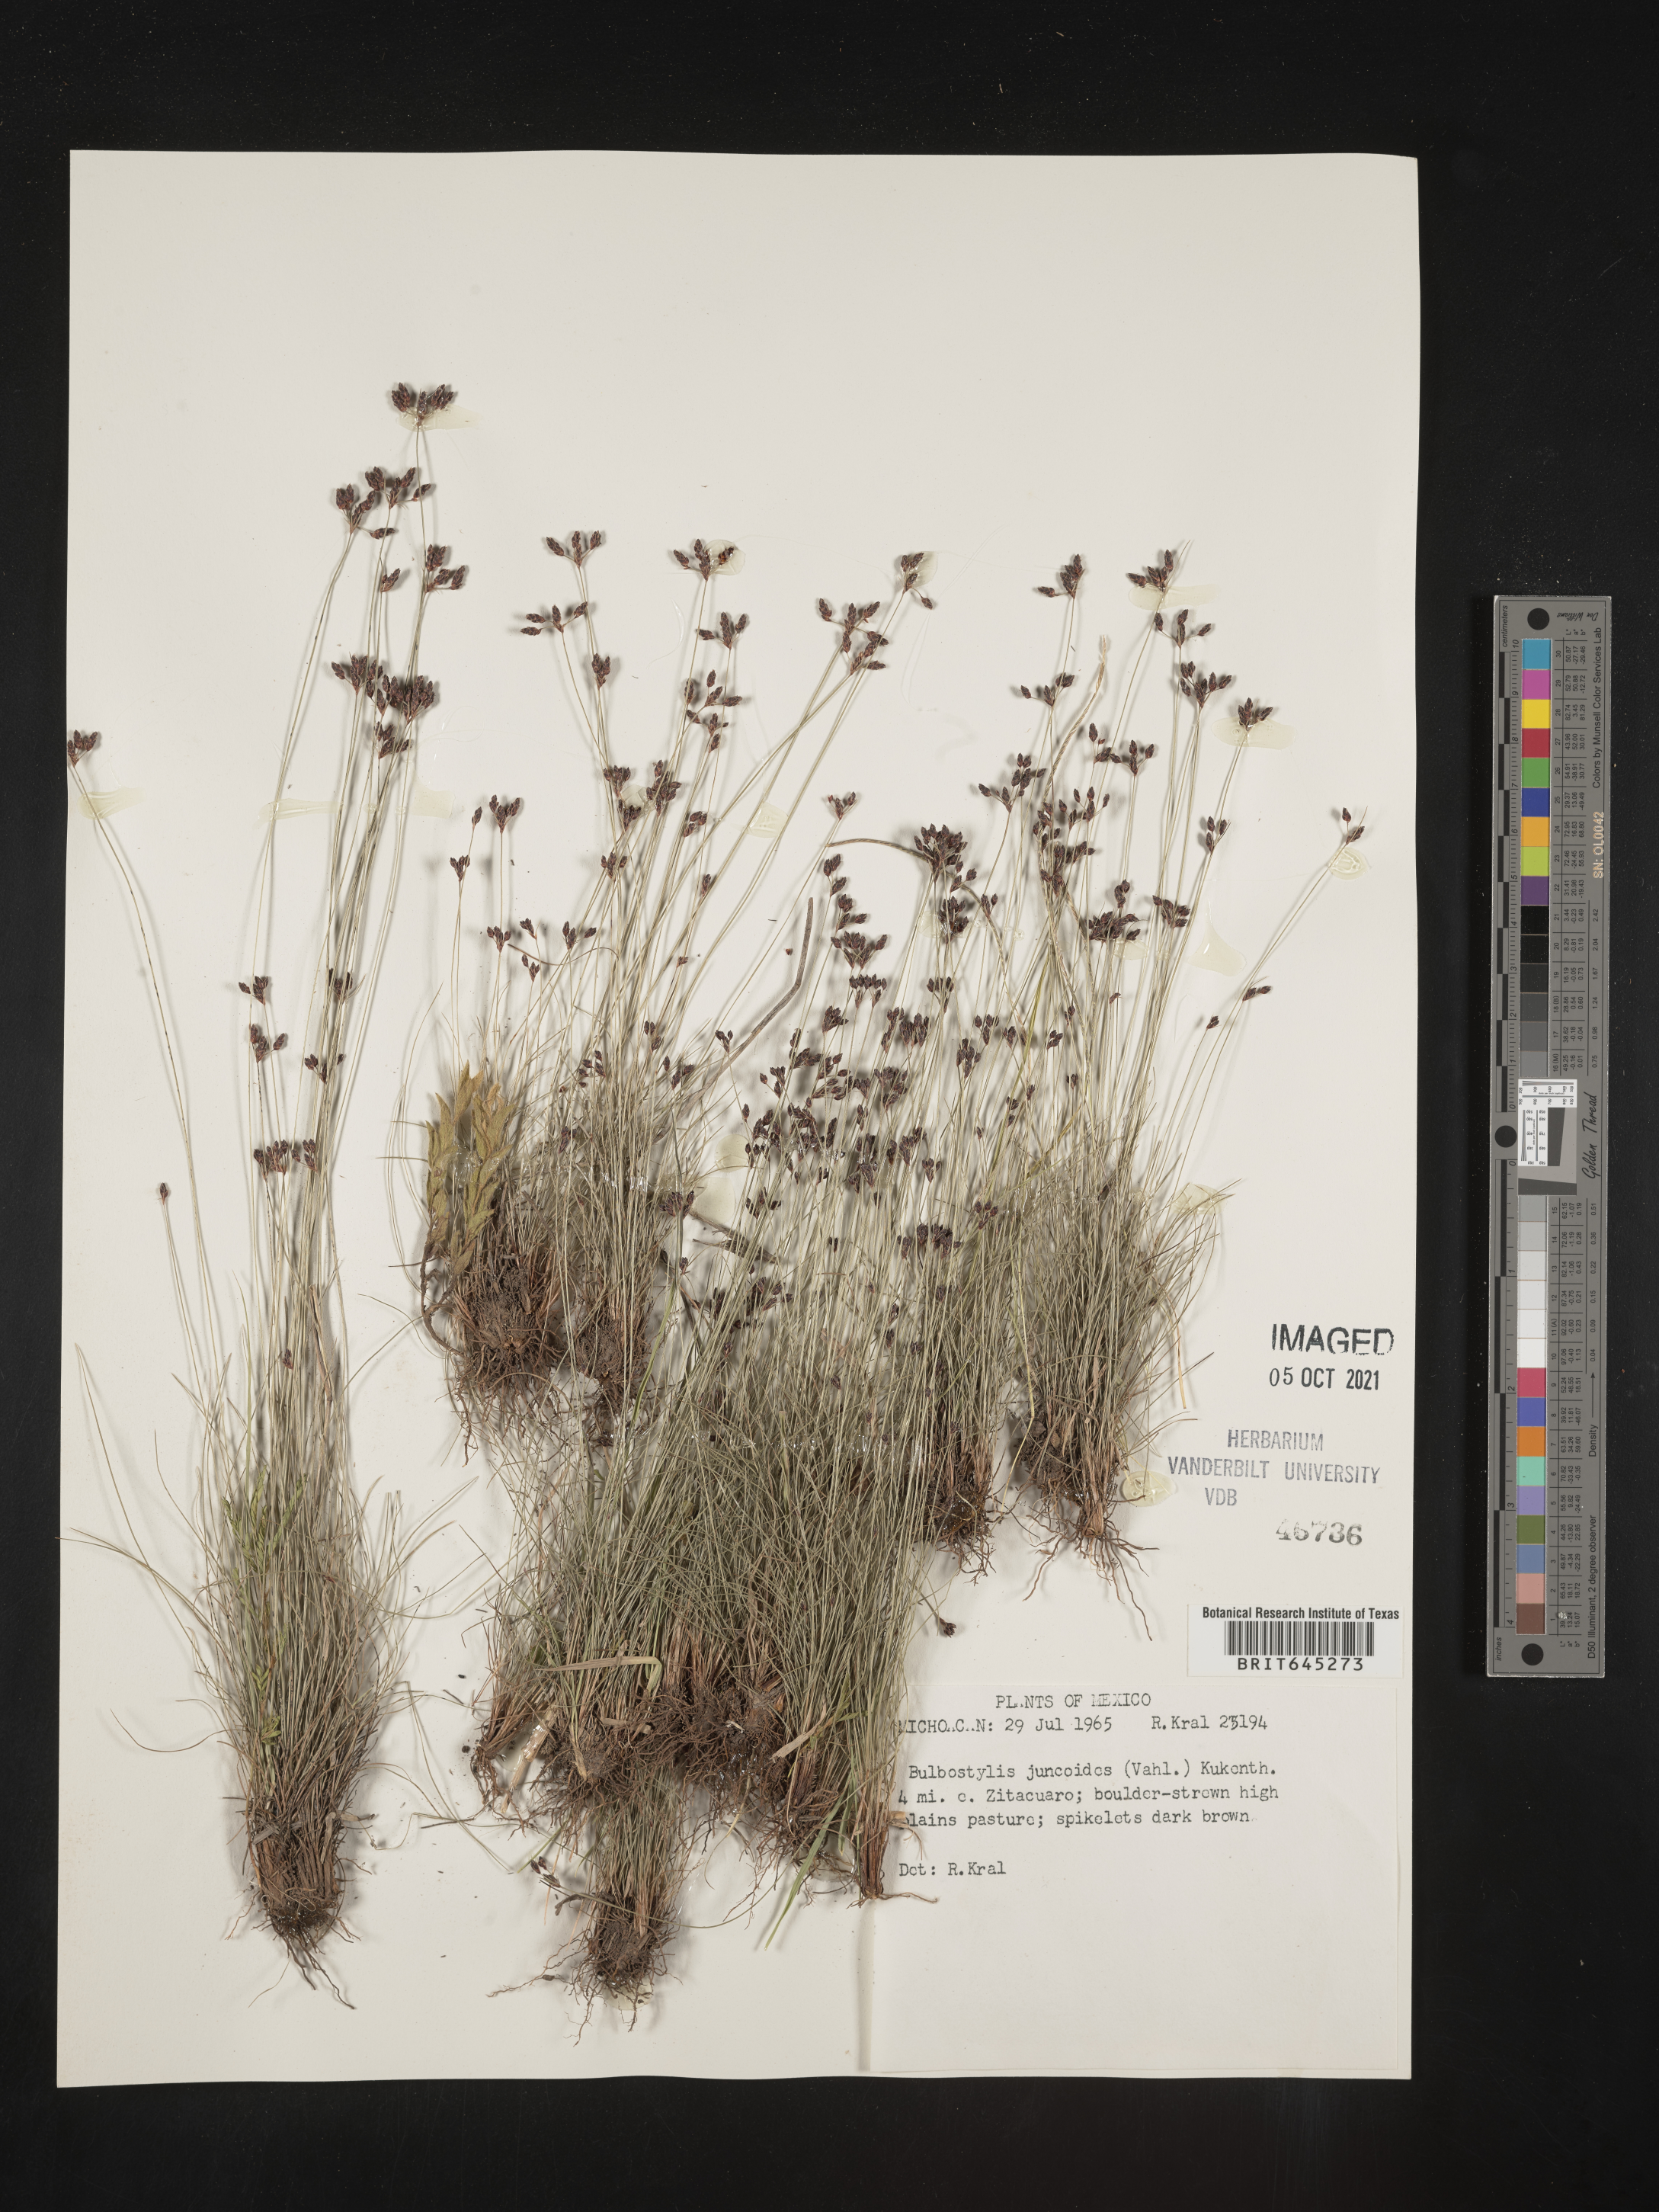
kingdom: Plantae
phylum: Tracheophyta
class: Liliopsida
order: Poales
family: Cyperaceae
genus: Bulbostylis
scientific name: Bulbostylis juncoides
